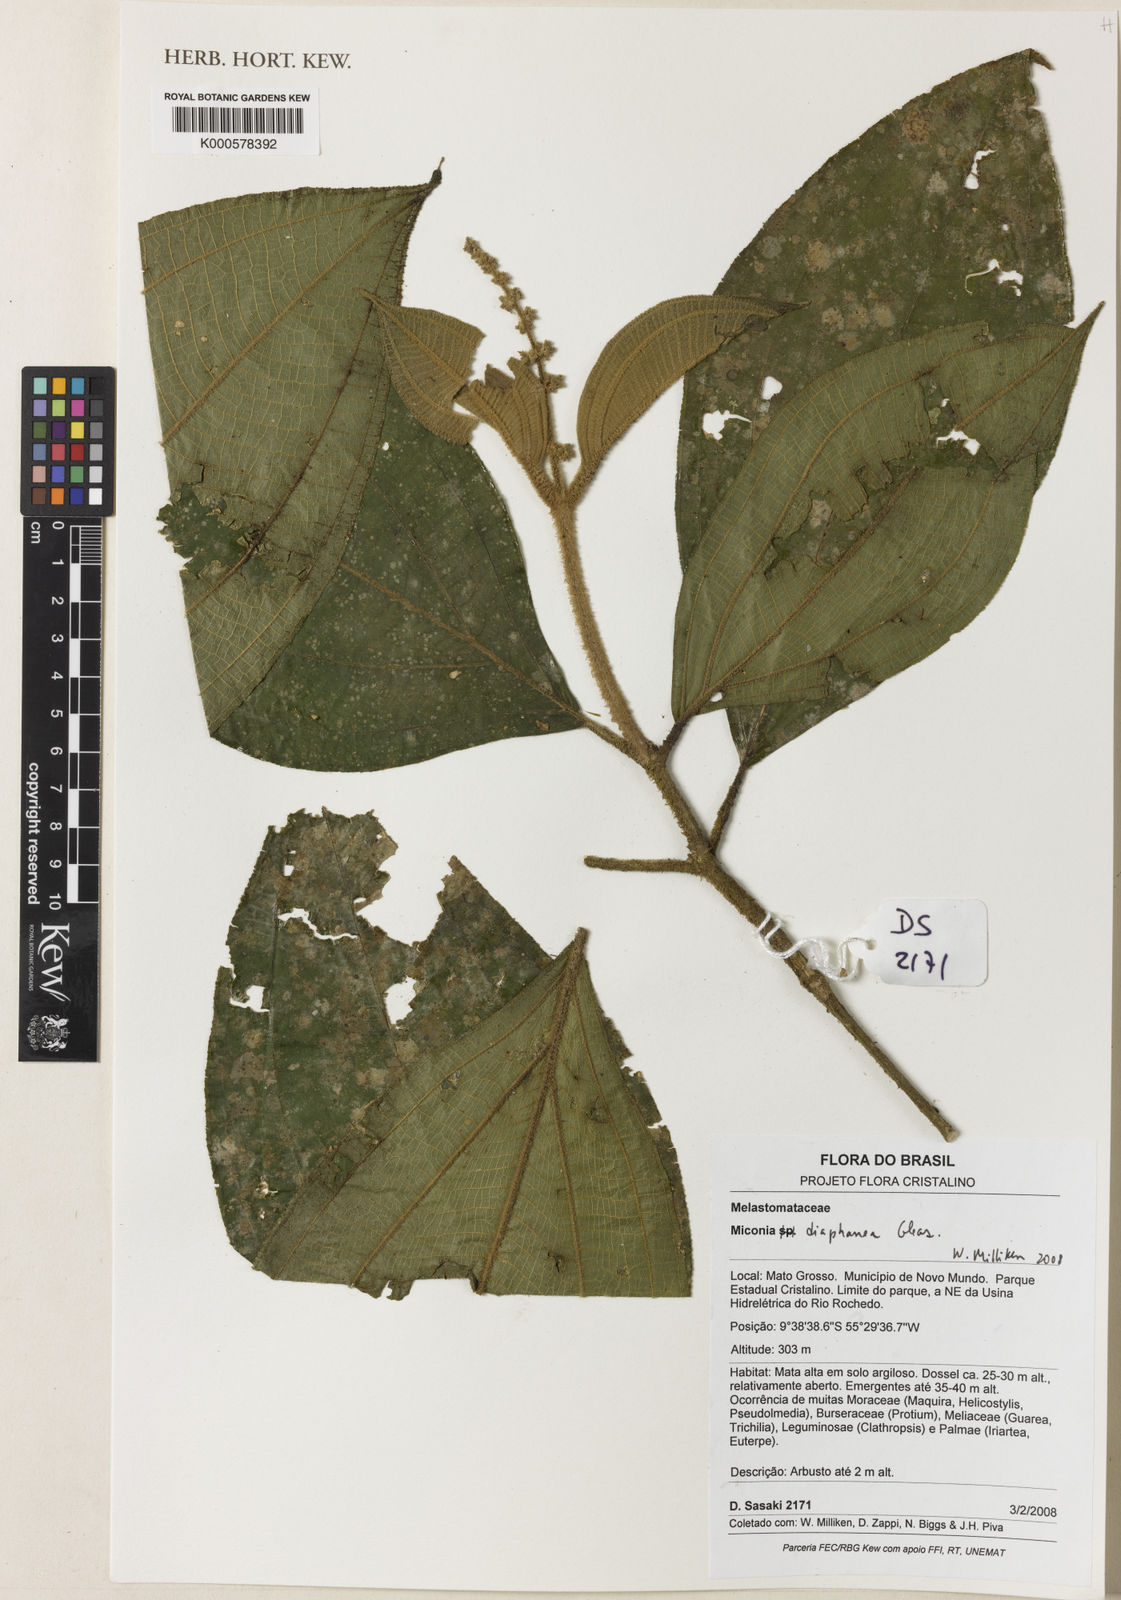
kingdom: Plantae
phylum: Tracheophyta
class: Magnoliopsida
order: Myrtales
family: Melastomataceae
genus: Miconia
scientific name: Miconia diaphanea
